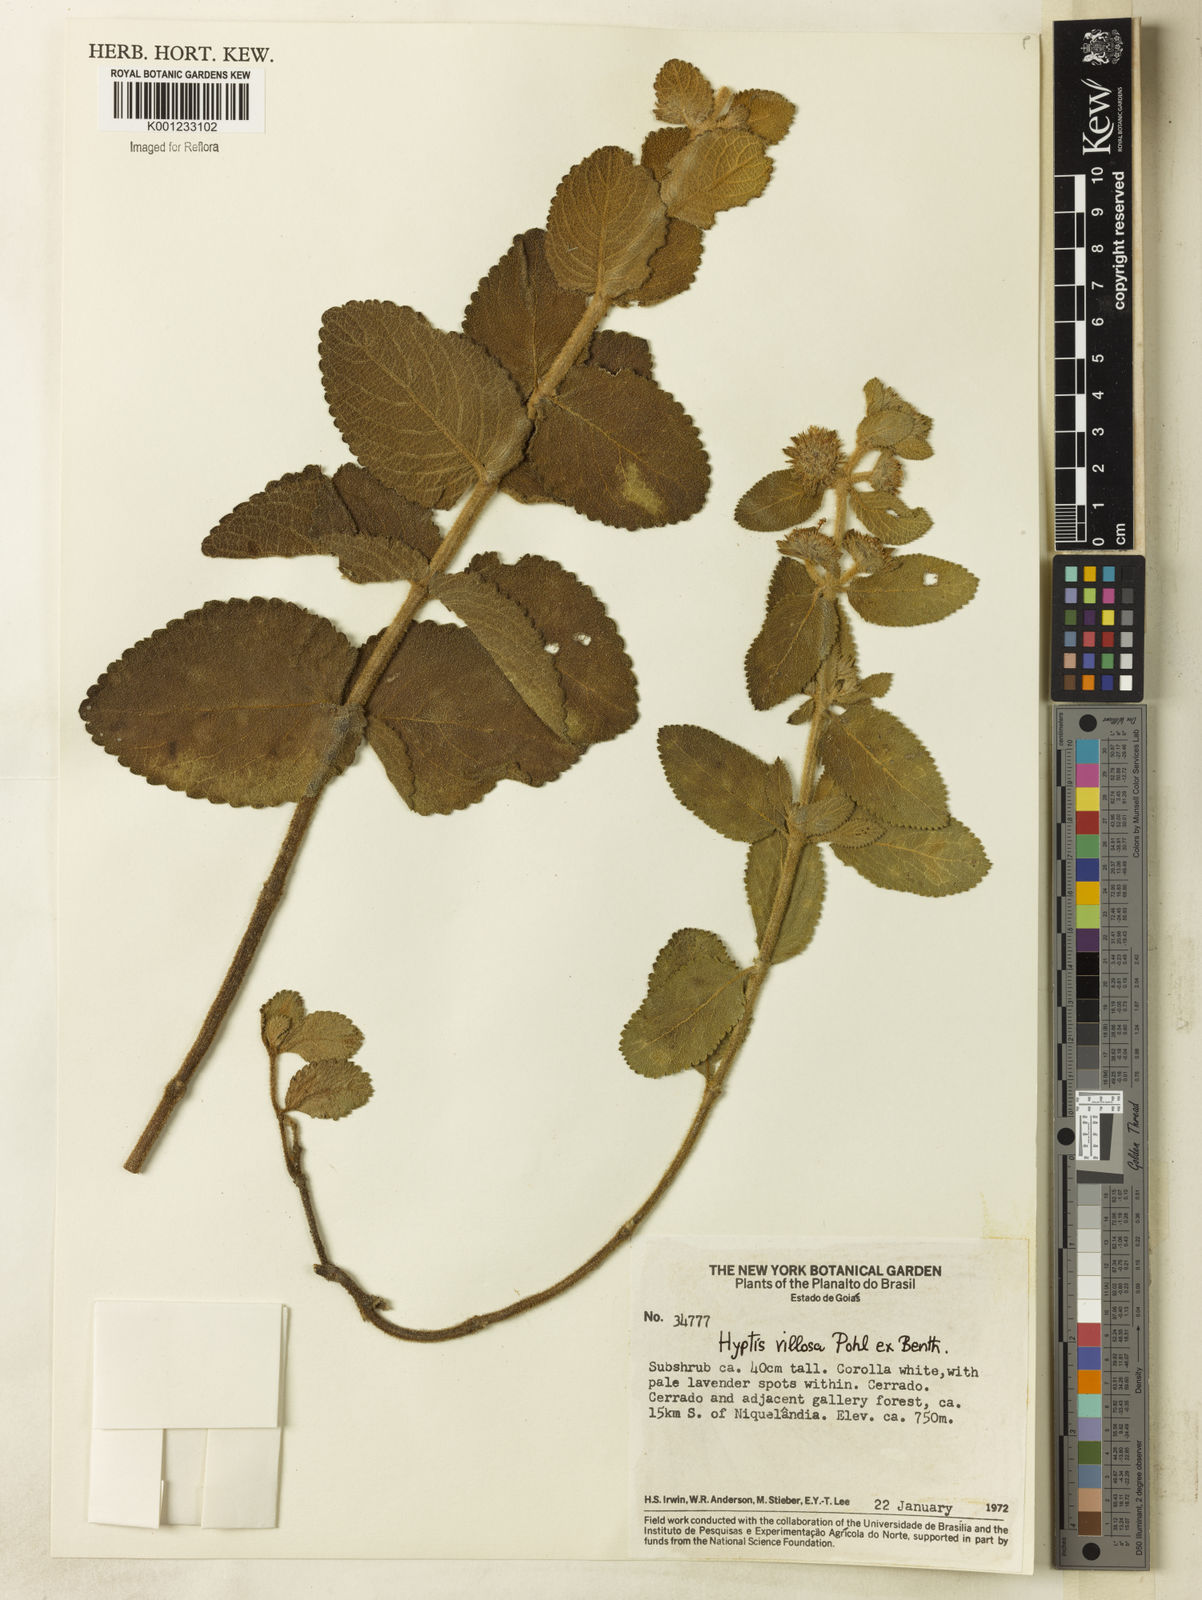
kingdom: Plantae
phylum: Tracheophyta
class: Magnoliopsida
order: Lamiales
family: Lamiaceae
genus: Hyptis
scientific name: Hyptis villosa
